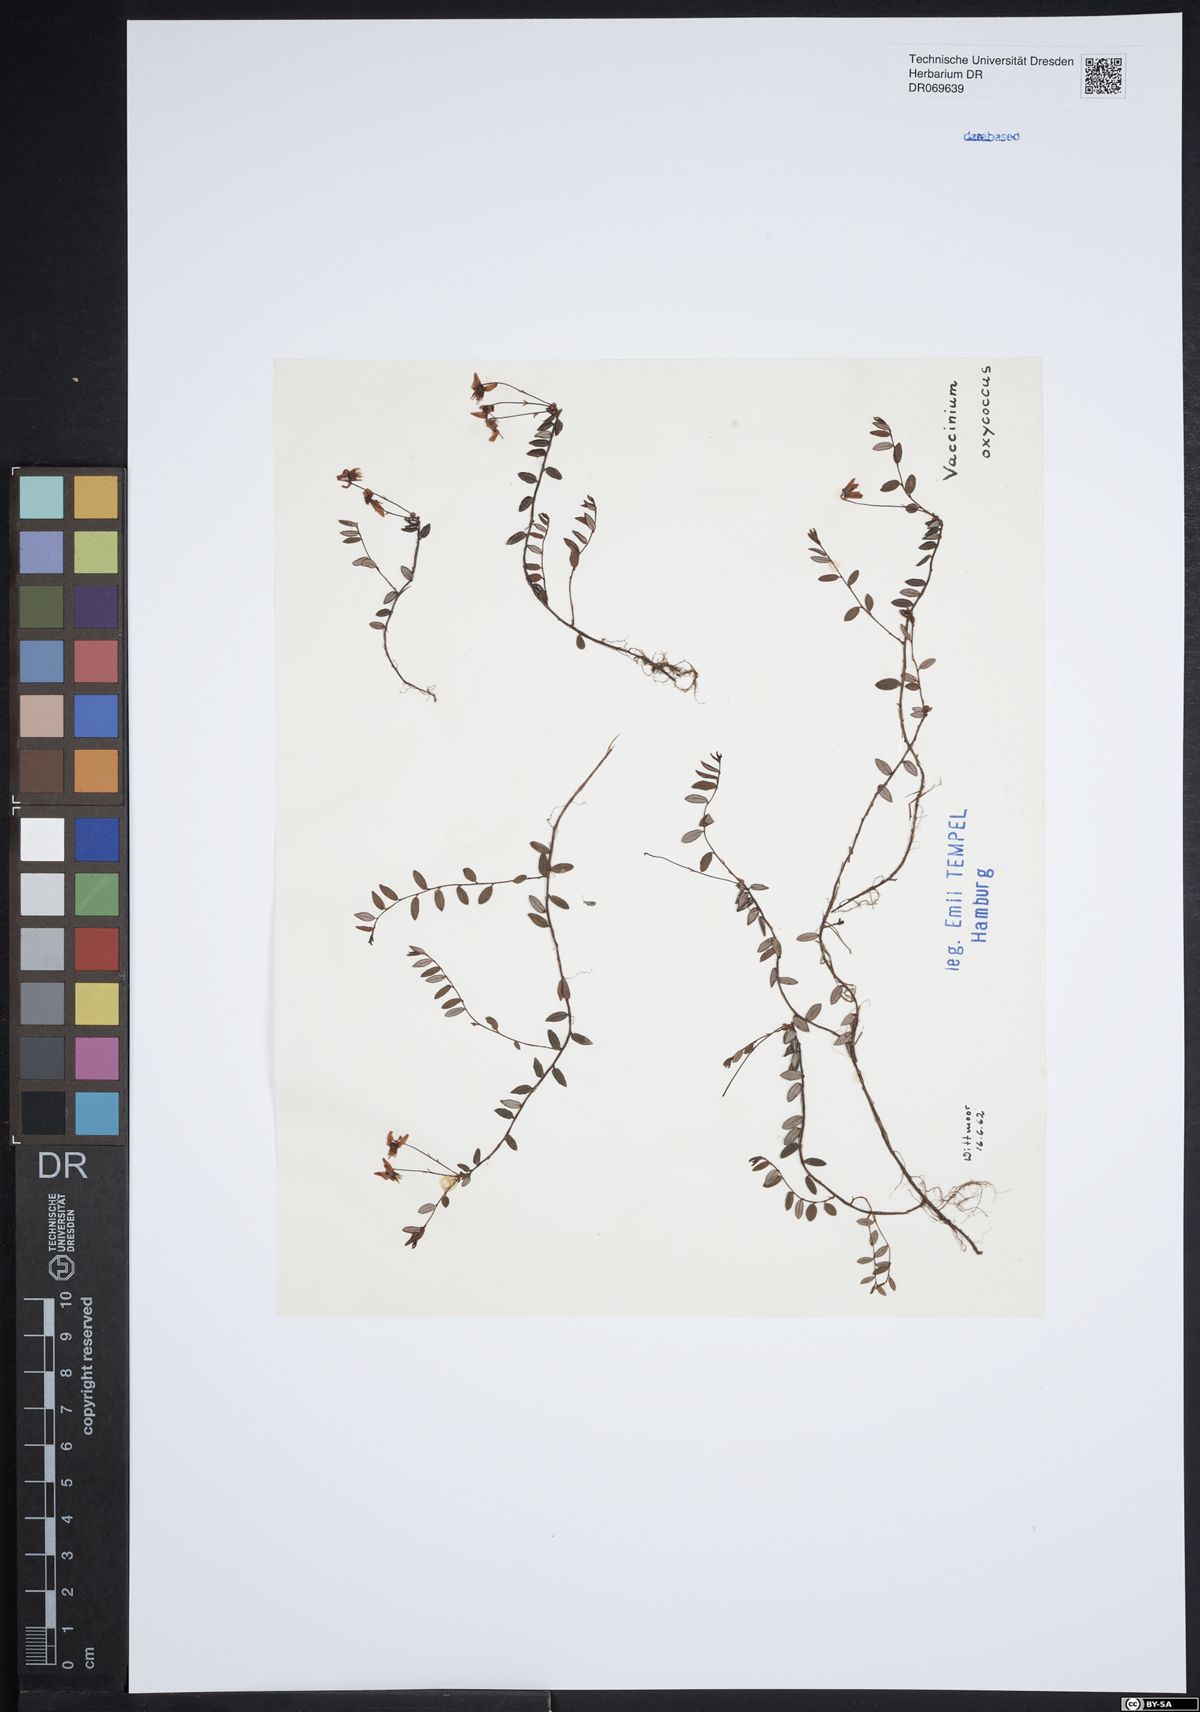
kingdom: Plantae
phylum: Tracheophyta
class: Magnoliopsida
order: Ericales
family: Ericaceae
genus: Vaccinium
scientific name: Vaccinium oxycoccos
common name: Cranberry
